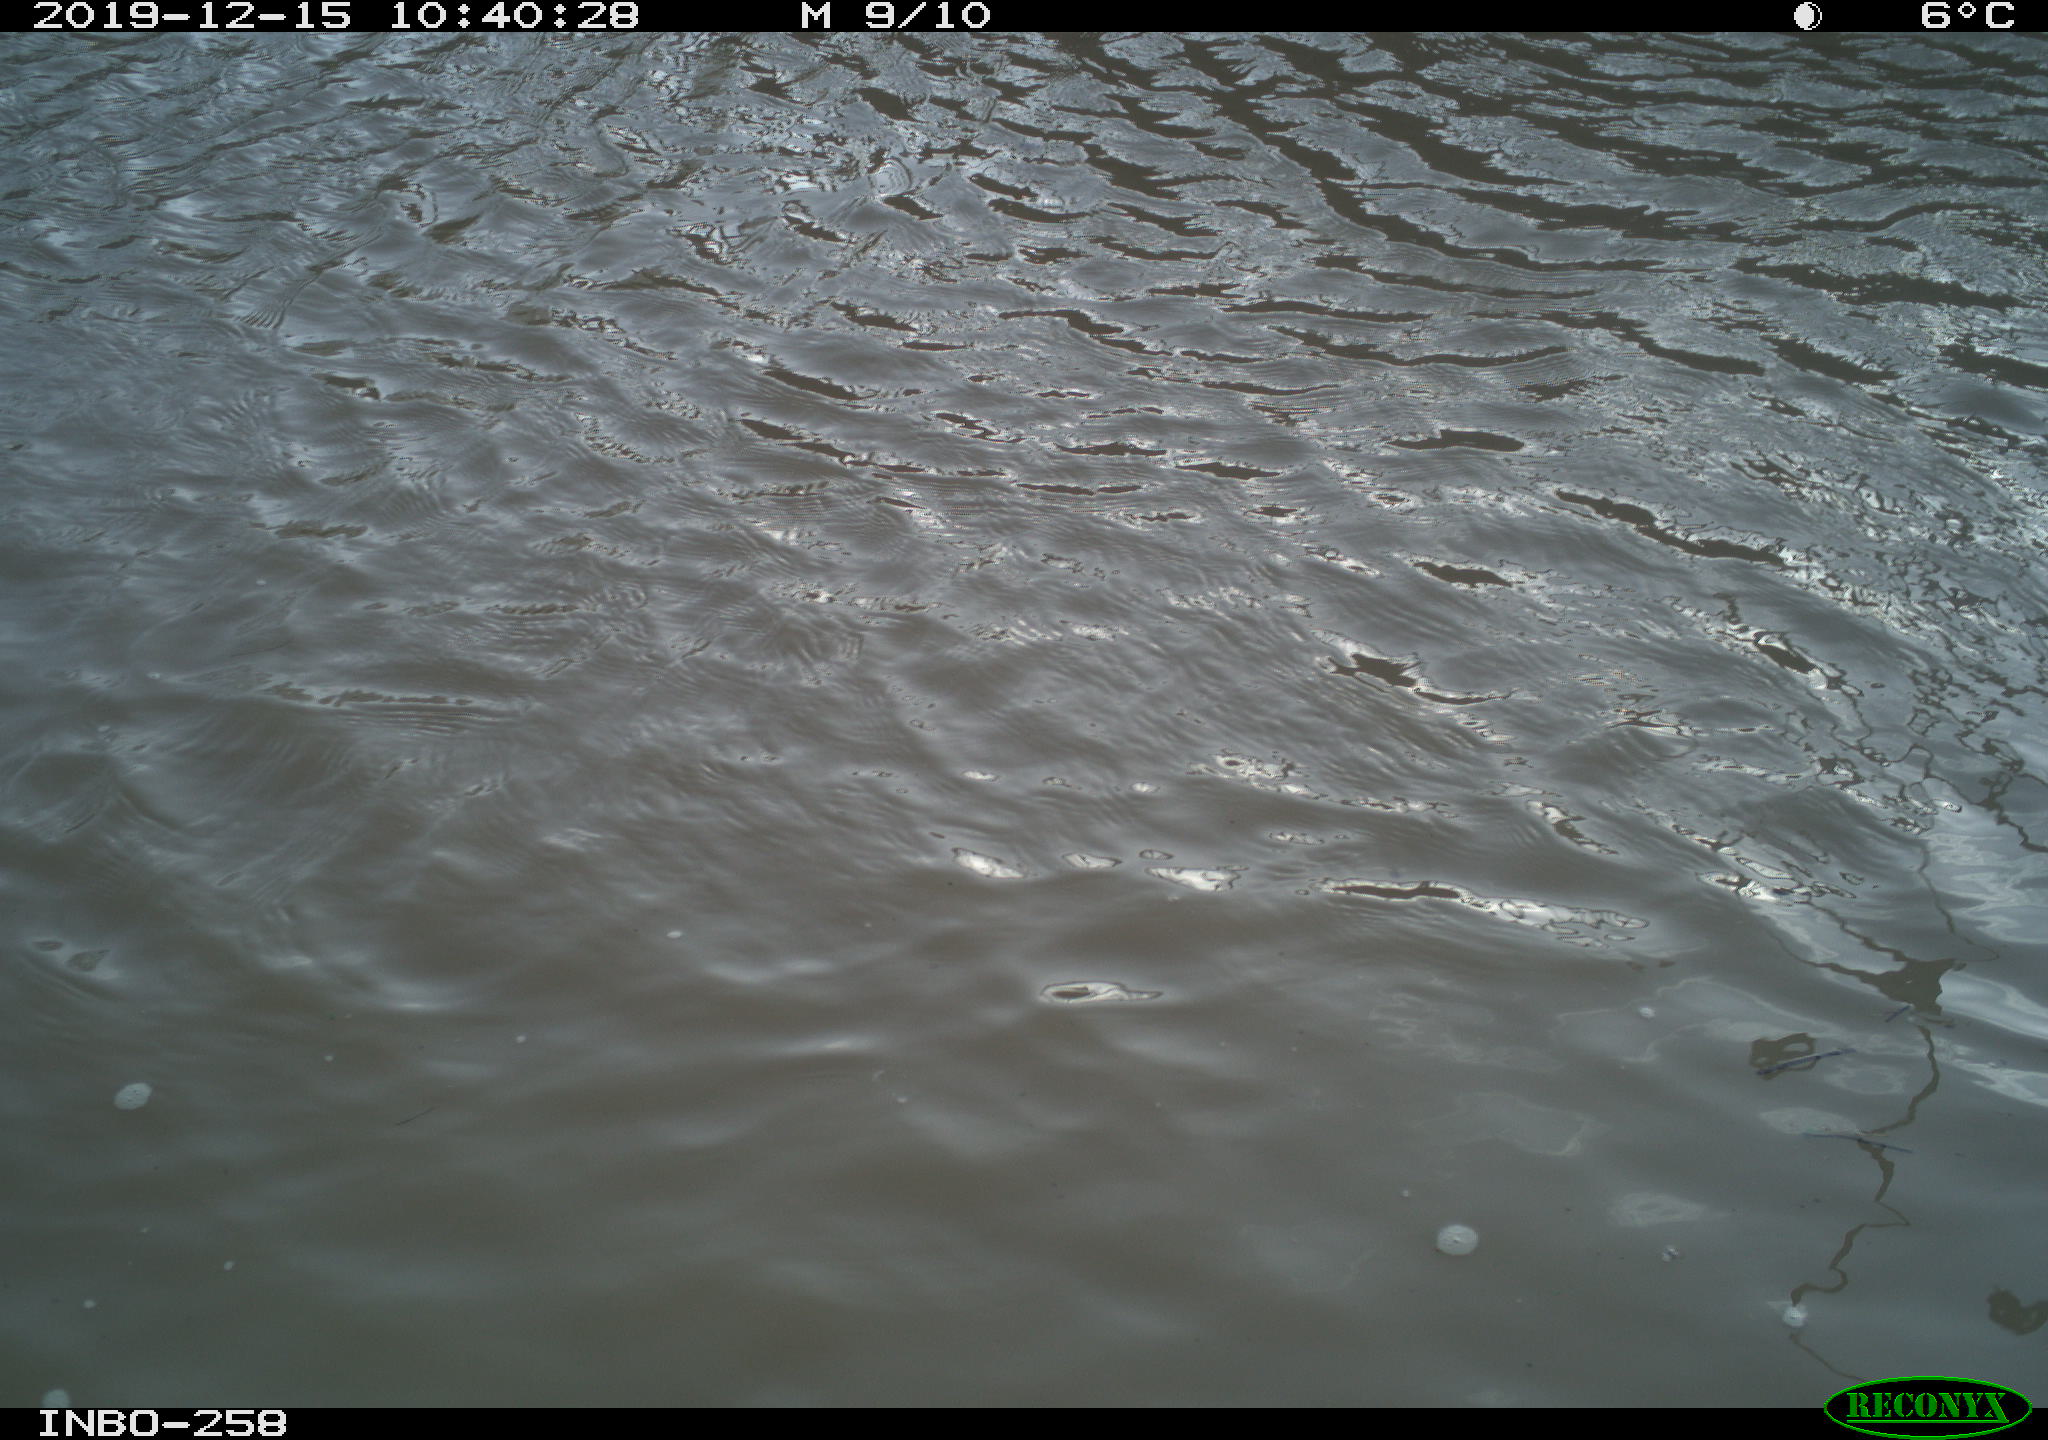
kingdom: Animalia
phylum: Chordata
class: Aves
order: Gruiformes
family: Rallidae
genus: Gallinula
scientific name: Gallinula chloropus
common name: Common moorhen
